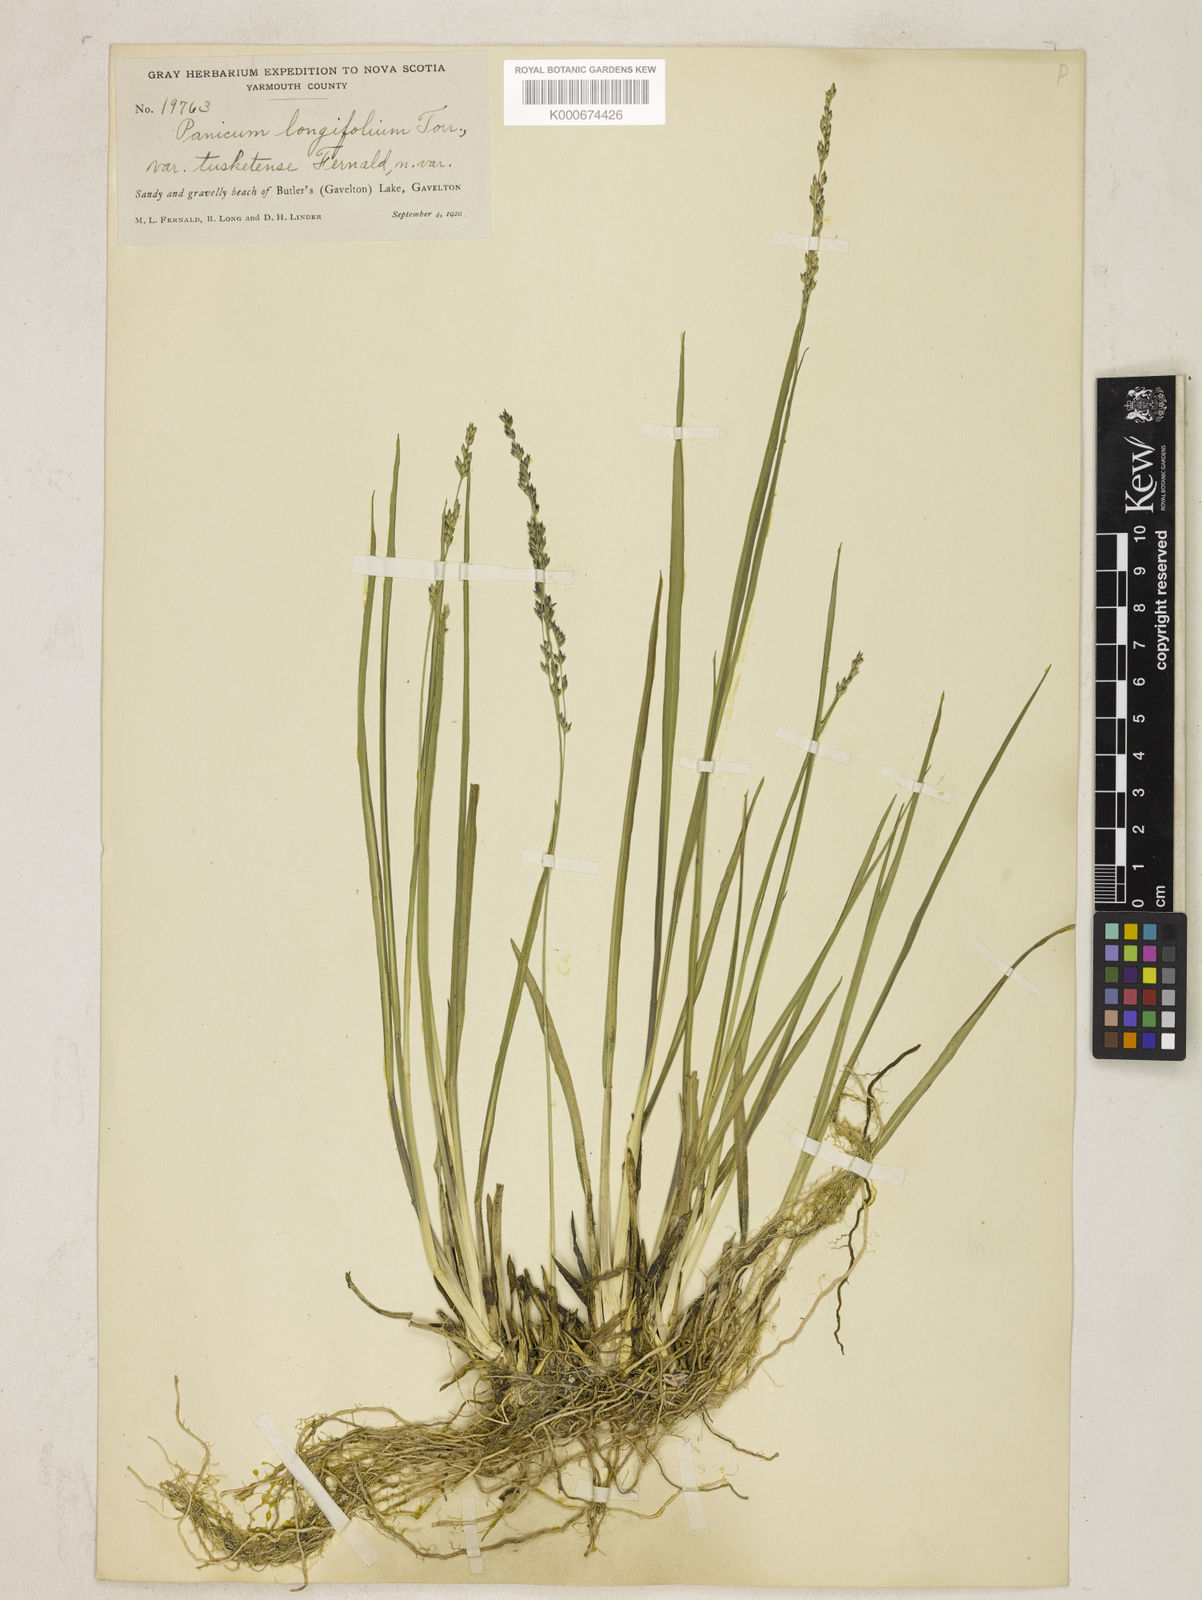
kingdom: Plantae
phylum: Tracheophyta
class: Liliopsida
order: Poales
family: Poaceae
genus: Coleataenia
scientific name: Coleataenia longifolia
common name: Long-leaved panicgrass
